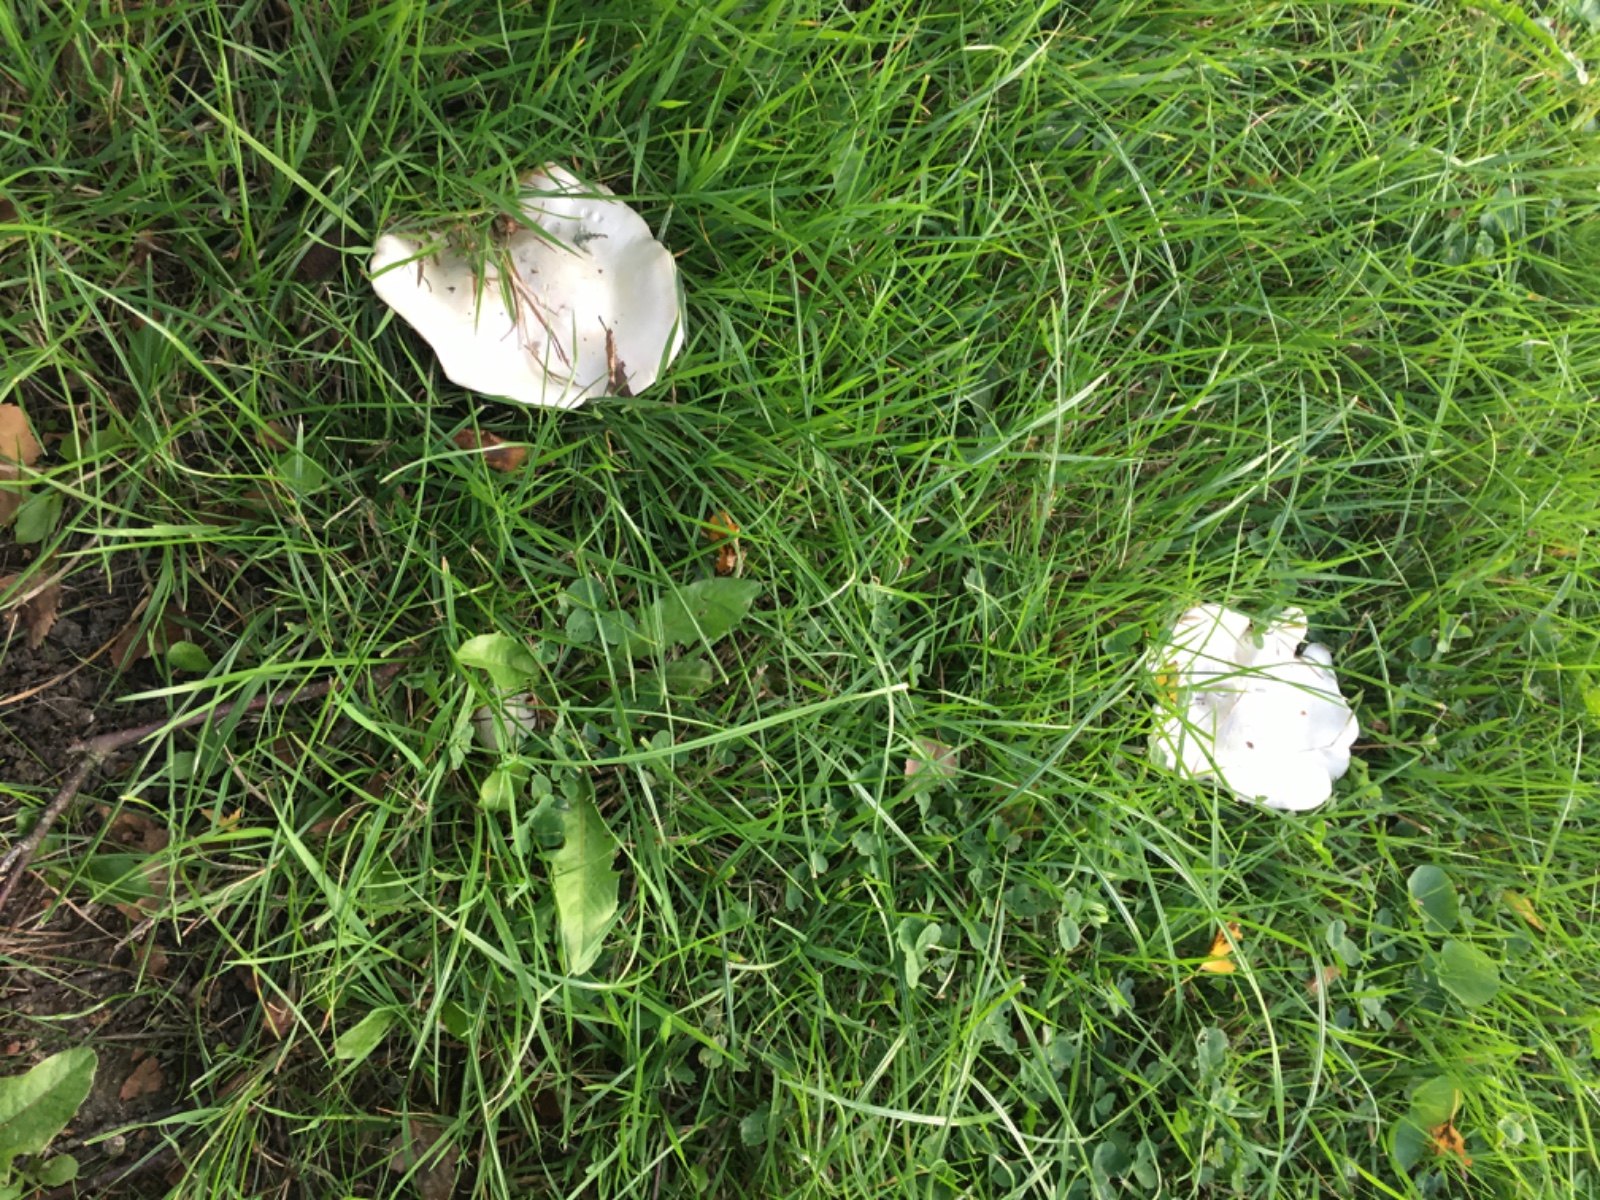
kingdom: Fungi
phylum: Basidiomycota
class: Agaricomycetes
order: Agaricales
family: Entolomataceae
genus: Clitopilus
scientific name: Clitopilus prunulus
